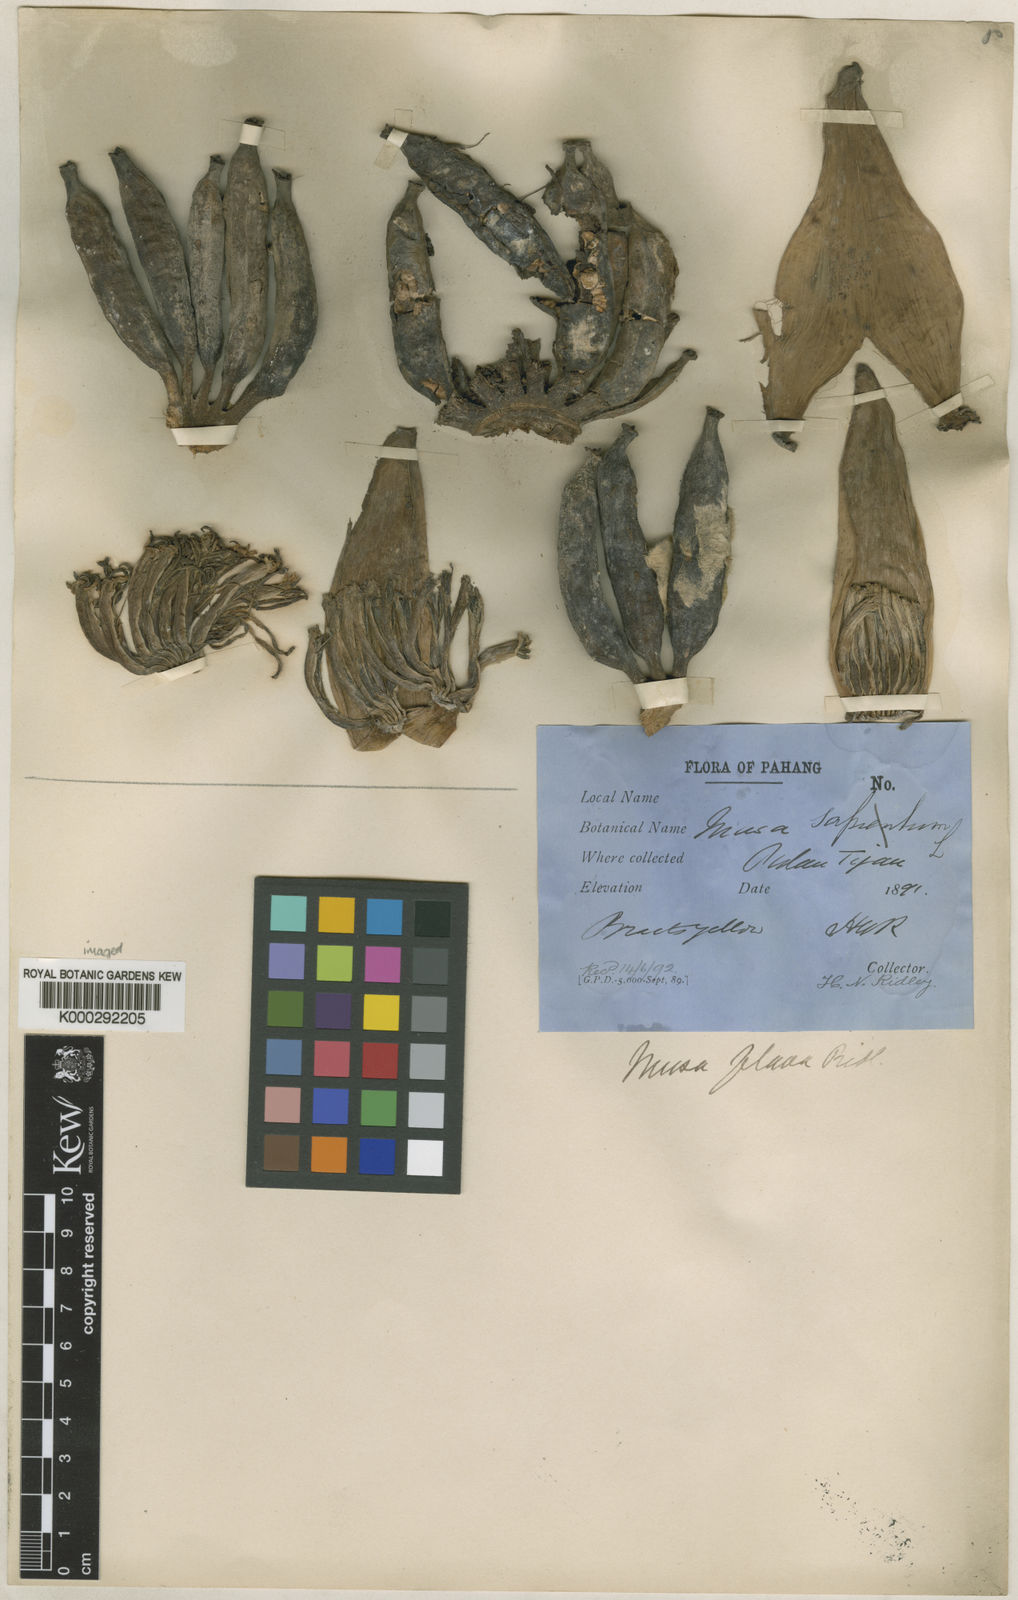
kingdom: Plantae
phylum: Tracheophyta
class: Liliopsida
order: Zingiberales
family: Musaceae
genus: Musa
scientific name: Musa acuminata
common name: Edible banana
